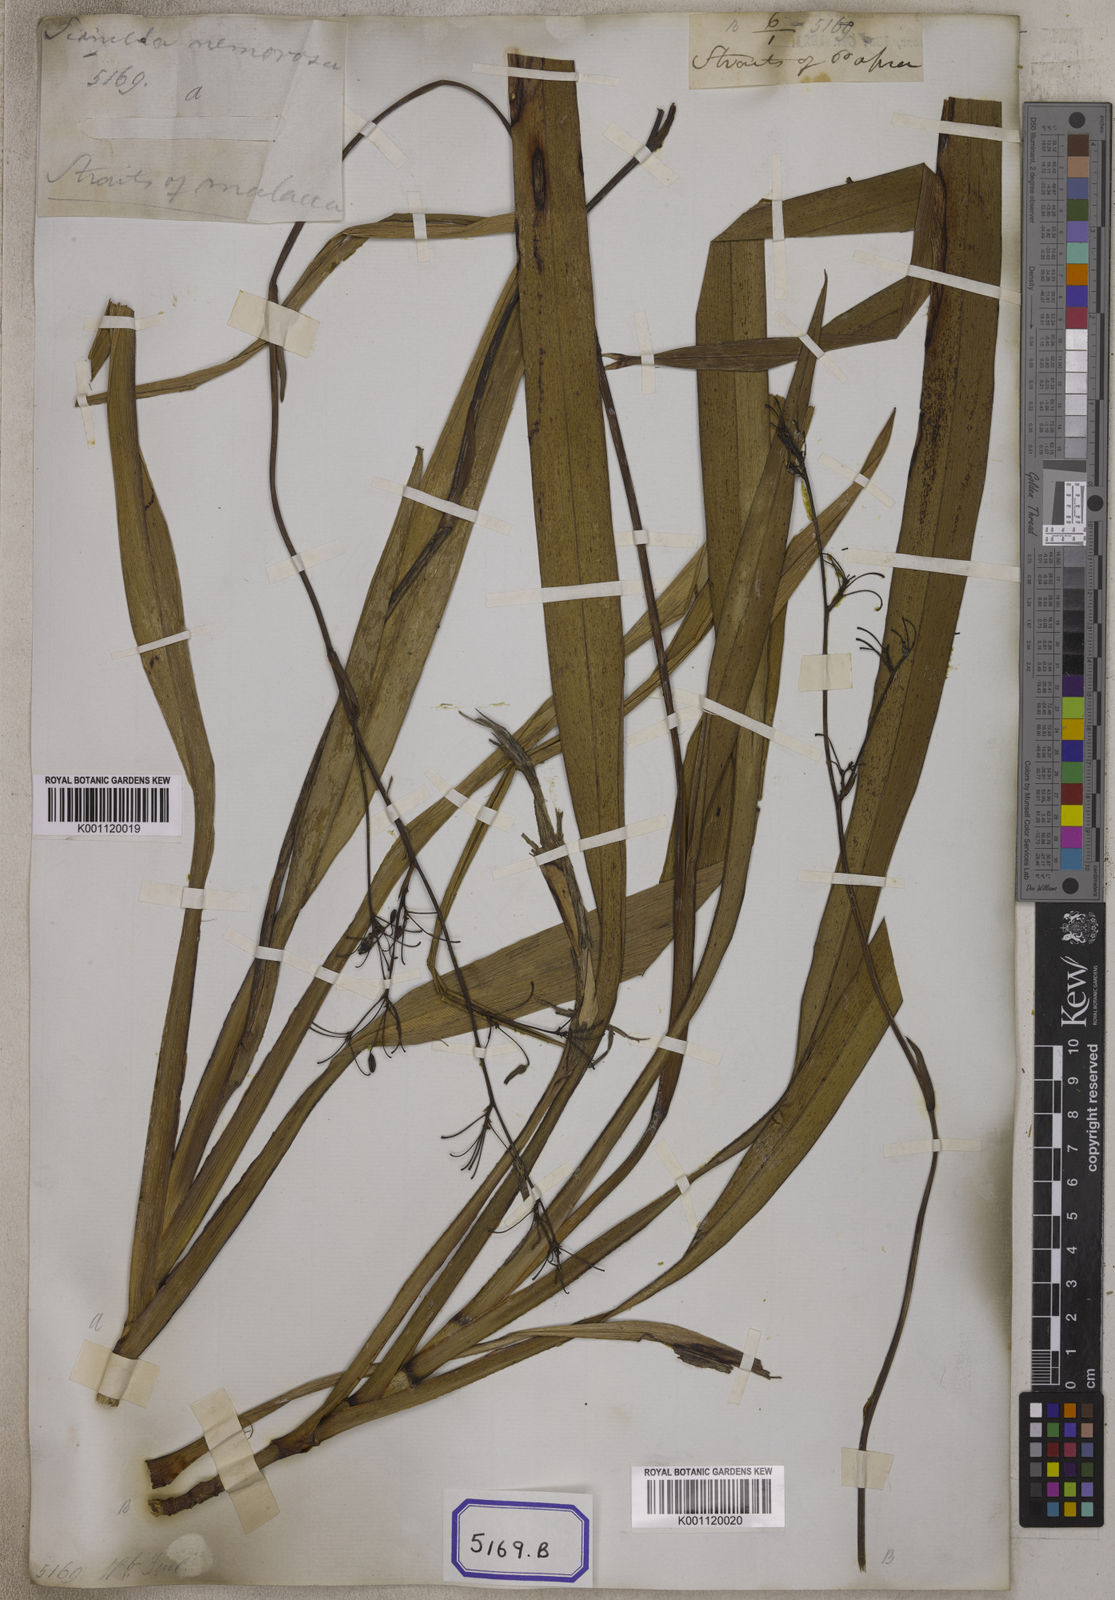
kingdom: Plantae
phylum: Tracheophyta
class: Liliopsida
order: Asparagales
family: Asphodelaceae
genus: Dianella
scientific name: Dianella ensifolia
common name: New zealand lilyplant
